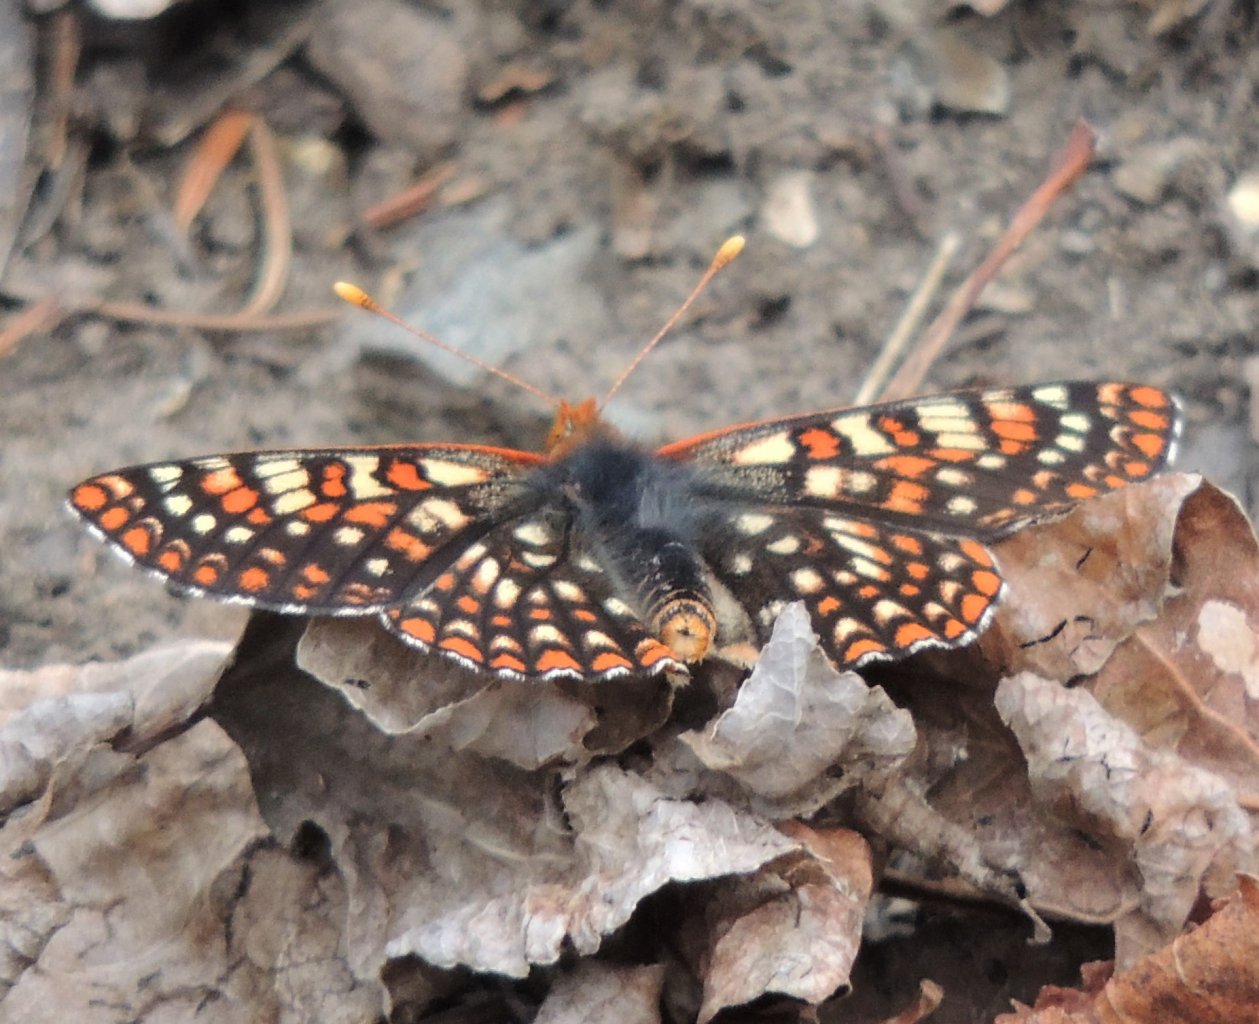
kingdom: Animalia
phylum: Arthropoda
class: Insecta
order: Lepidoptera
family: Nymphalidae
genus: Occidryas
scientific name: Occidryas anicia
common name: Anicia Checkerspot
